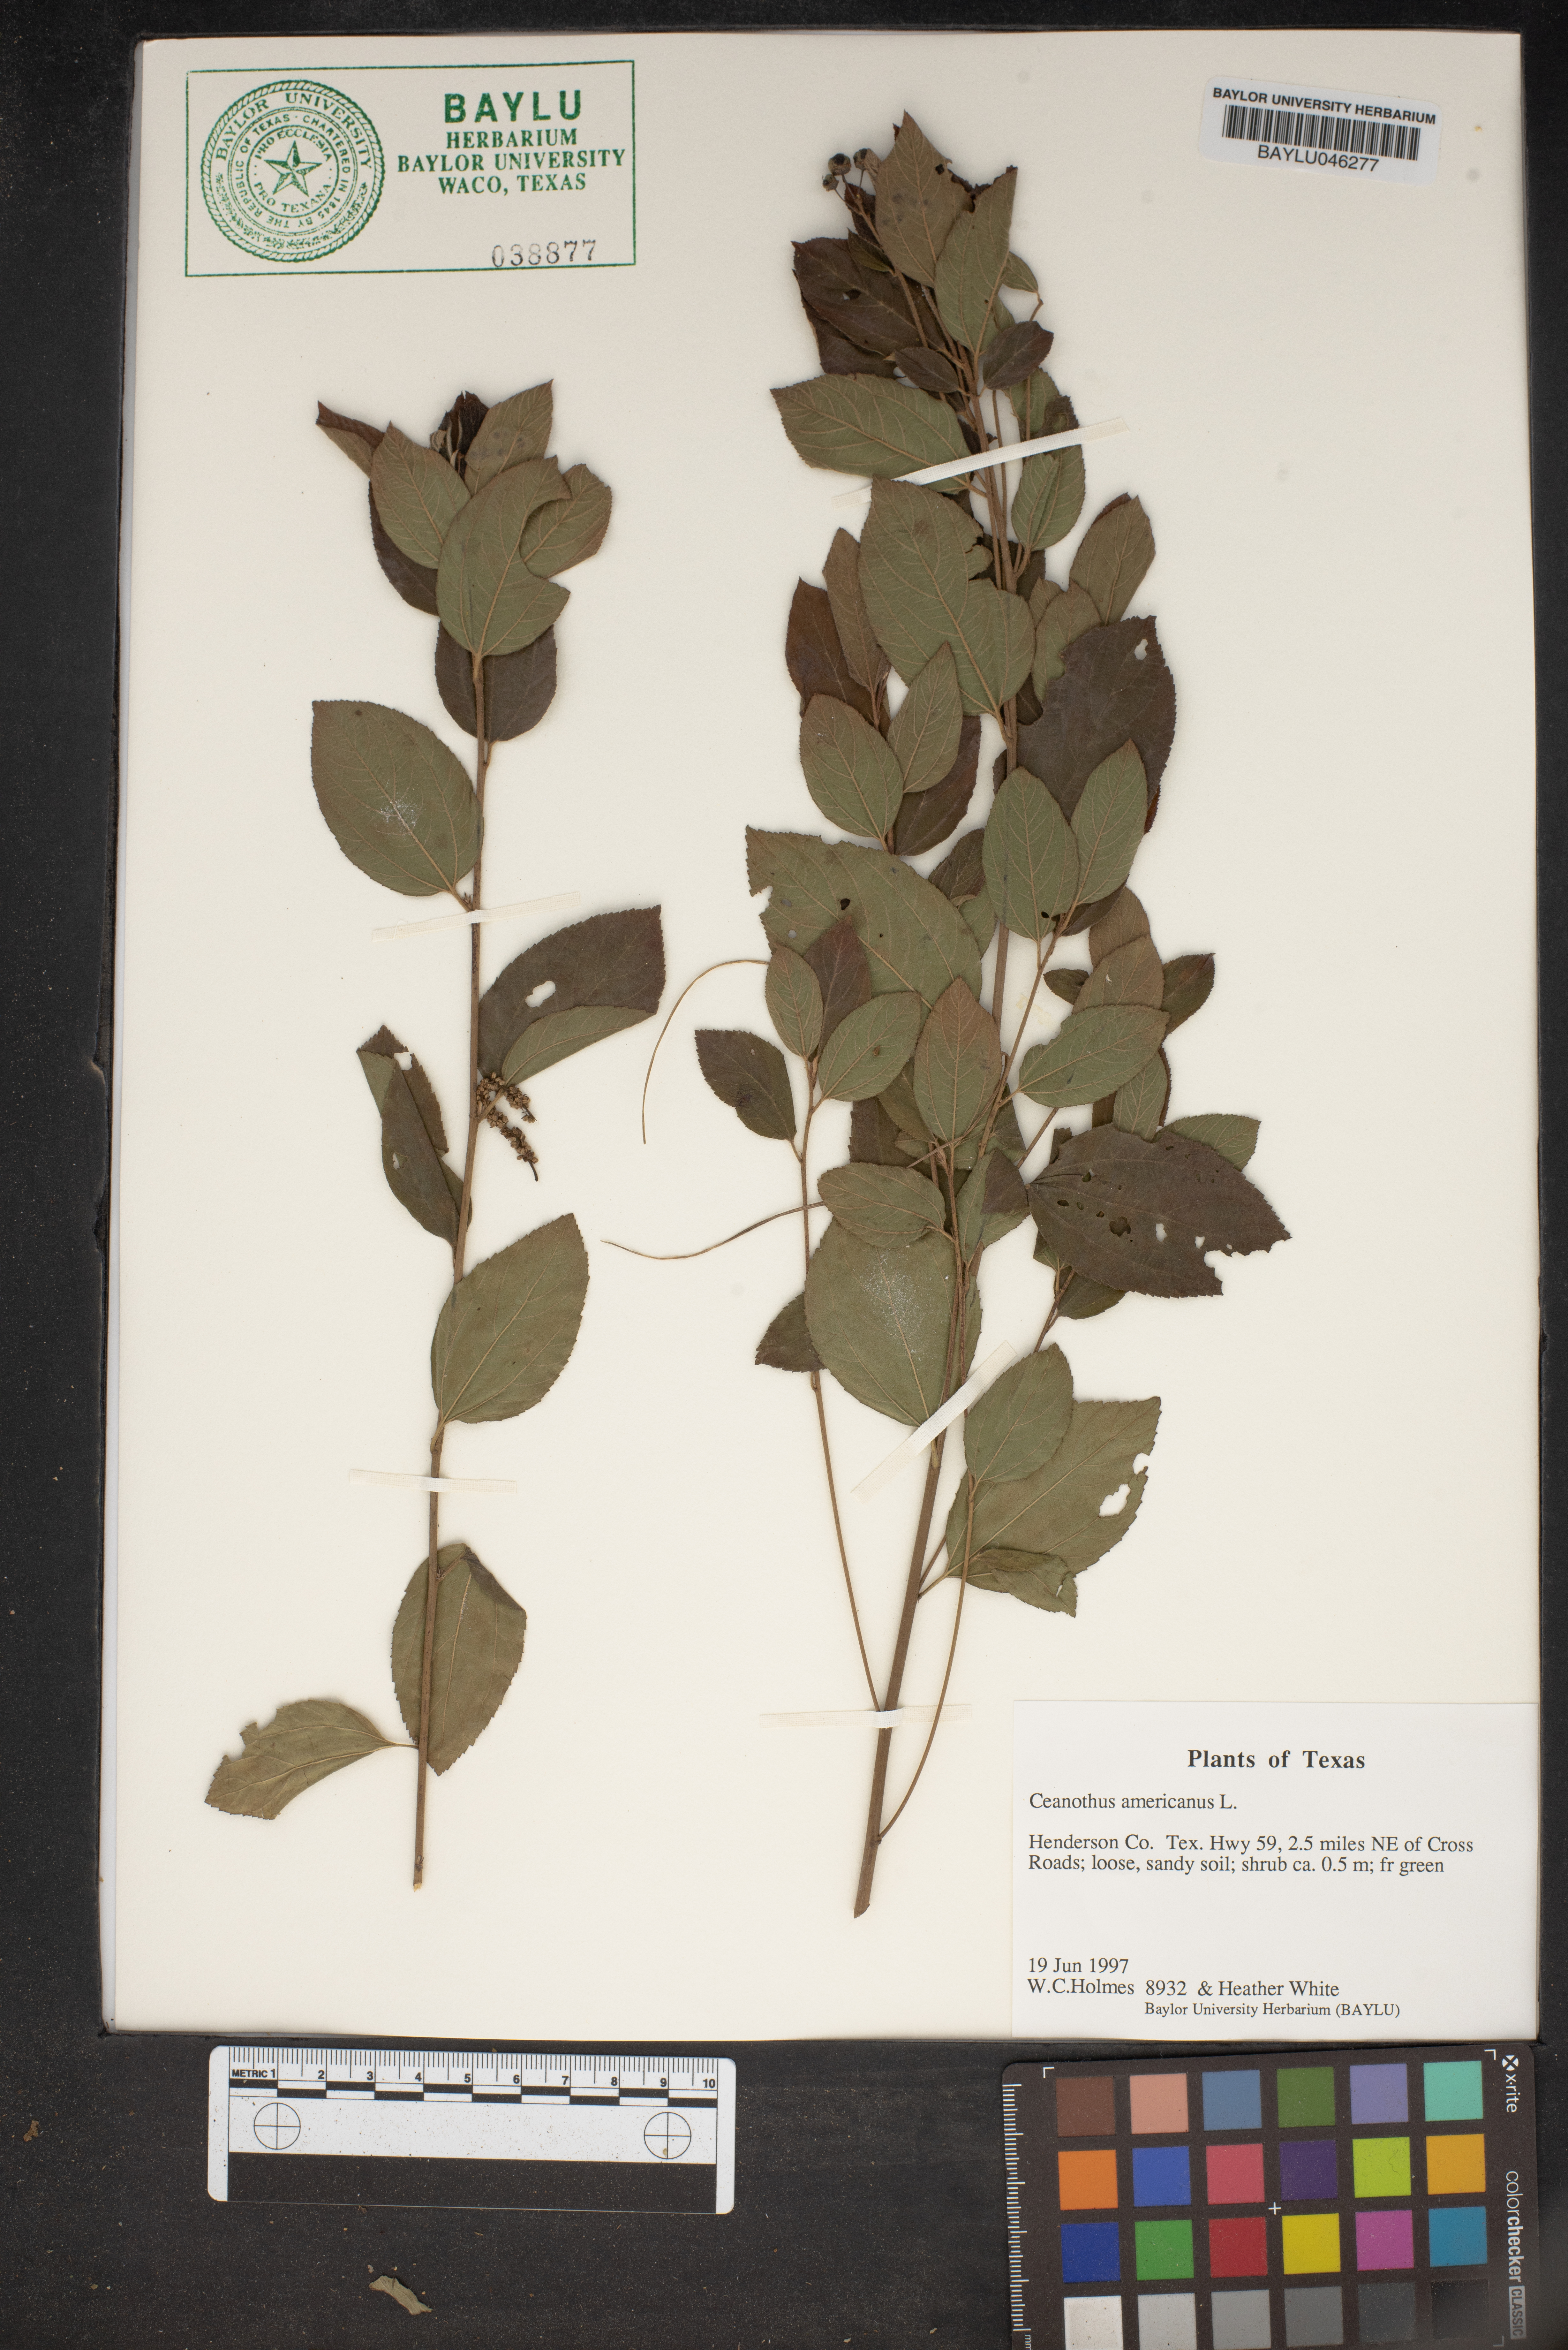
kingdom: Plantae
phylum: Tracheophyta
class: Magnoliopsida
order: Rosales
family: Rhamnaceae
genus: Ceanothus
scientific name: Ceanothus americanus
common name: Redroot
